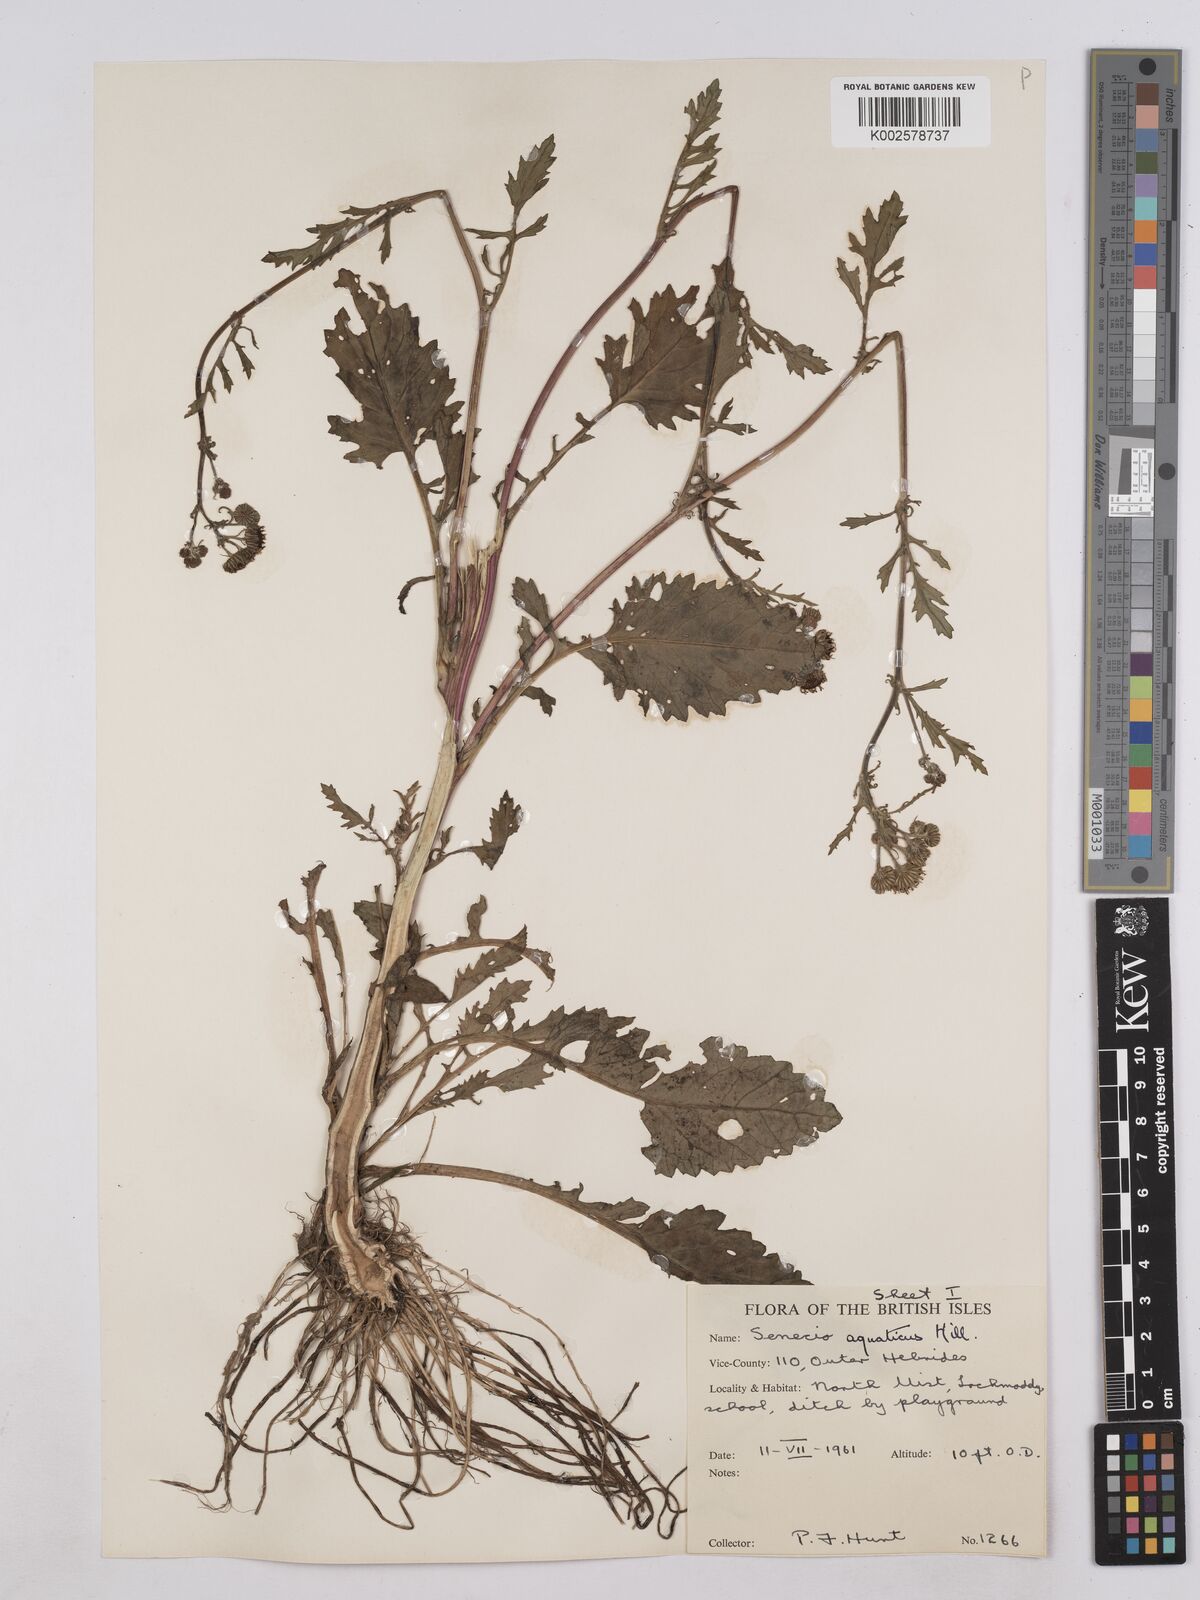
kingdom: Plantae
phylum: Tracheophyta
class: Magnoliopsida
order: Asterales
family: Asteraceae
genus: Jacobaea
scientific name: Jacobaea aquatica
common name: Water ragwort
